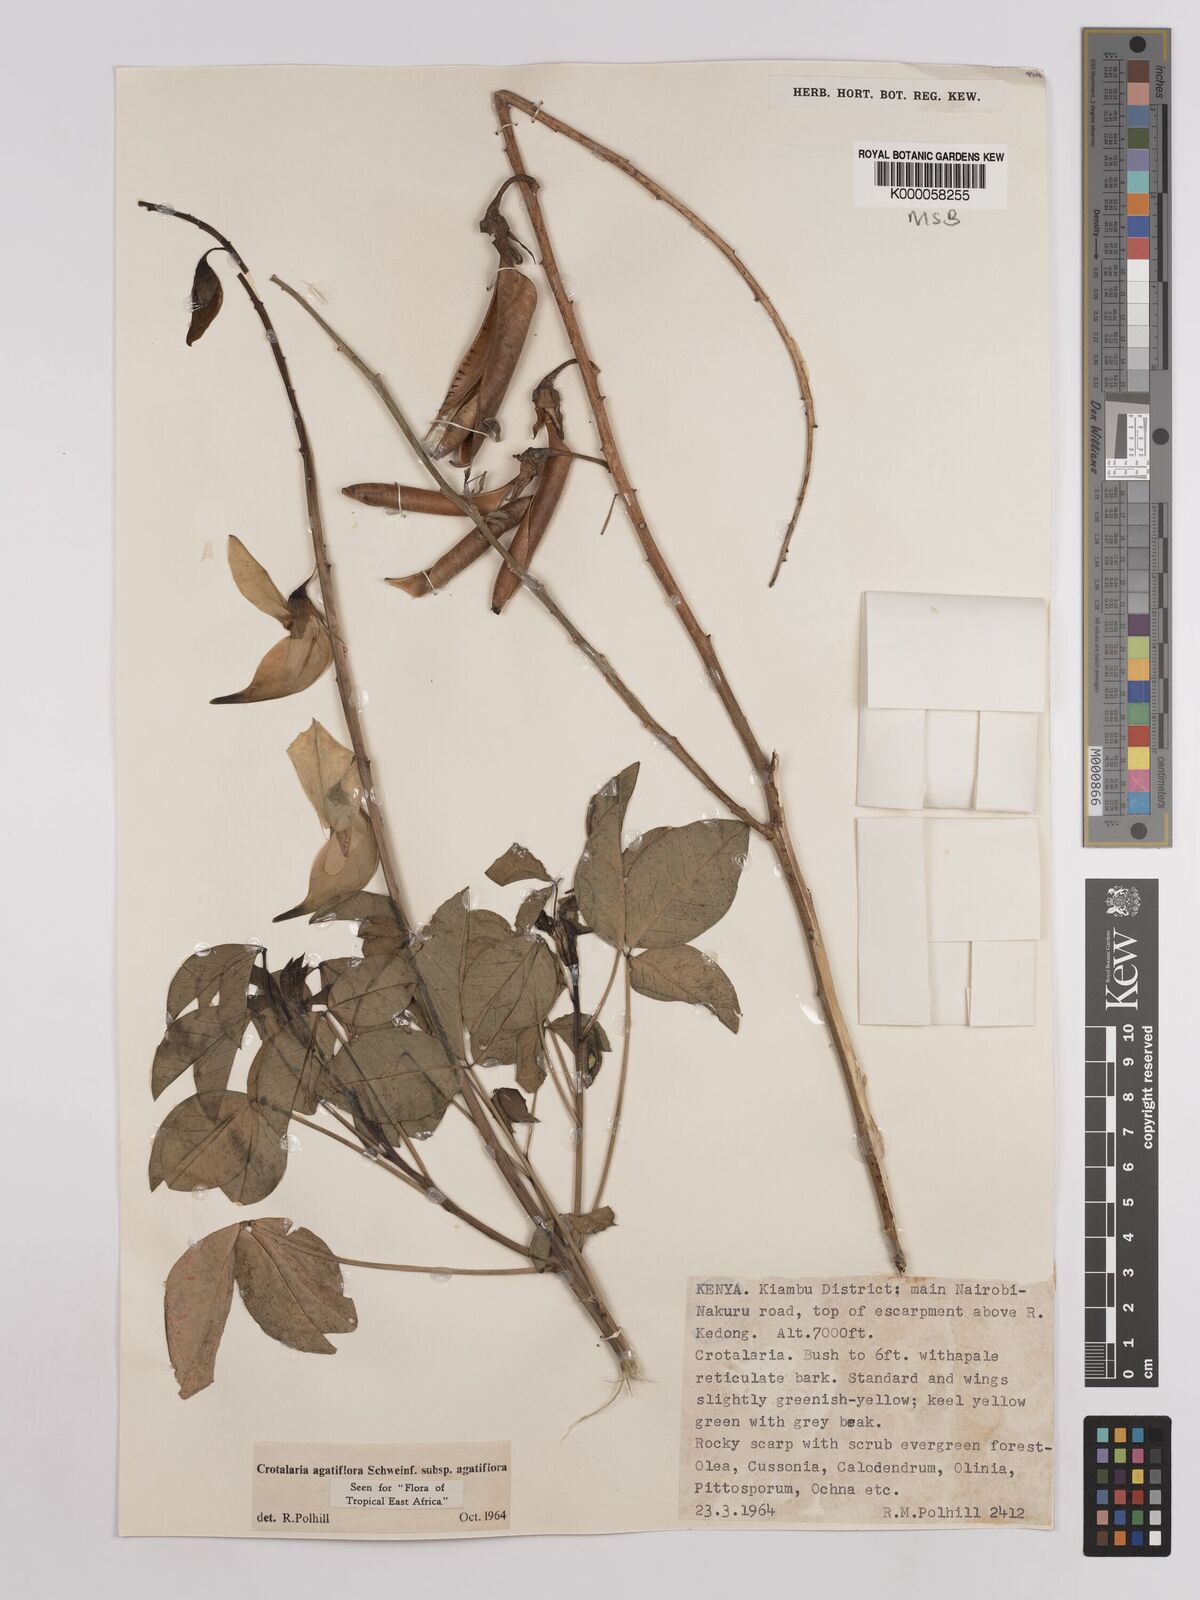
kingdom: Plantae
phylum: Tracheophyta
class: Magnoliopsida
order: Fabales
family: Fabaceae
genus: Crotalaria
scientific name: Crotalaria
